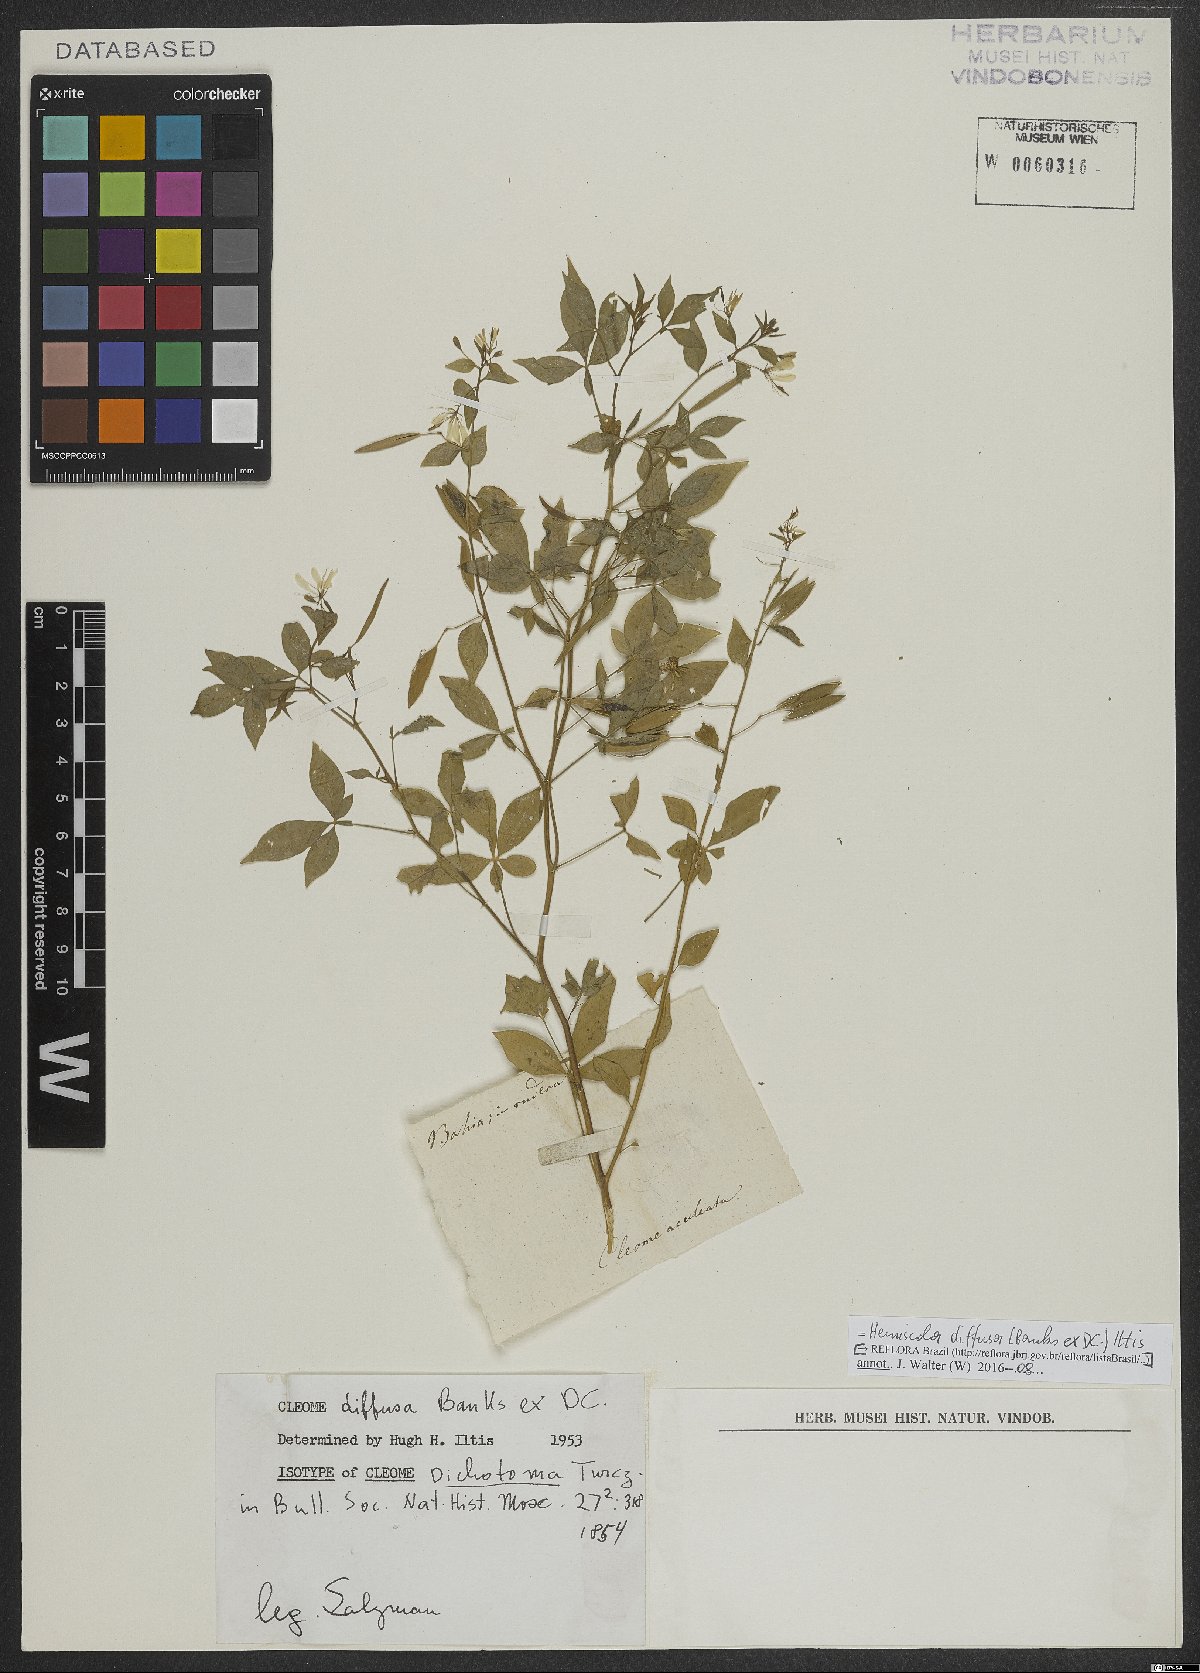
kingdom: Plantae
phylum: Tracheophyta
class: Magnoliopsida
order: Brassicales
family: Cleomaceae
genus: Tarenaya
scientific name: Tarenaya diffusa
